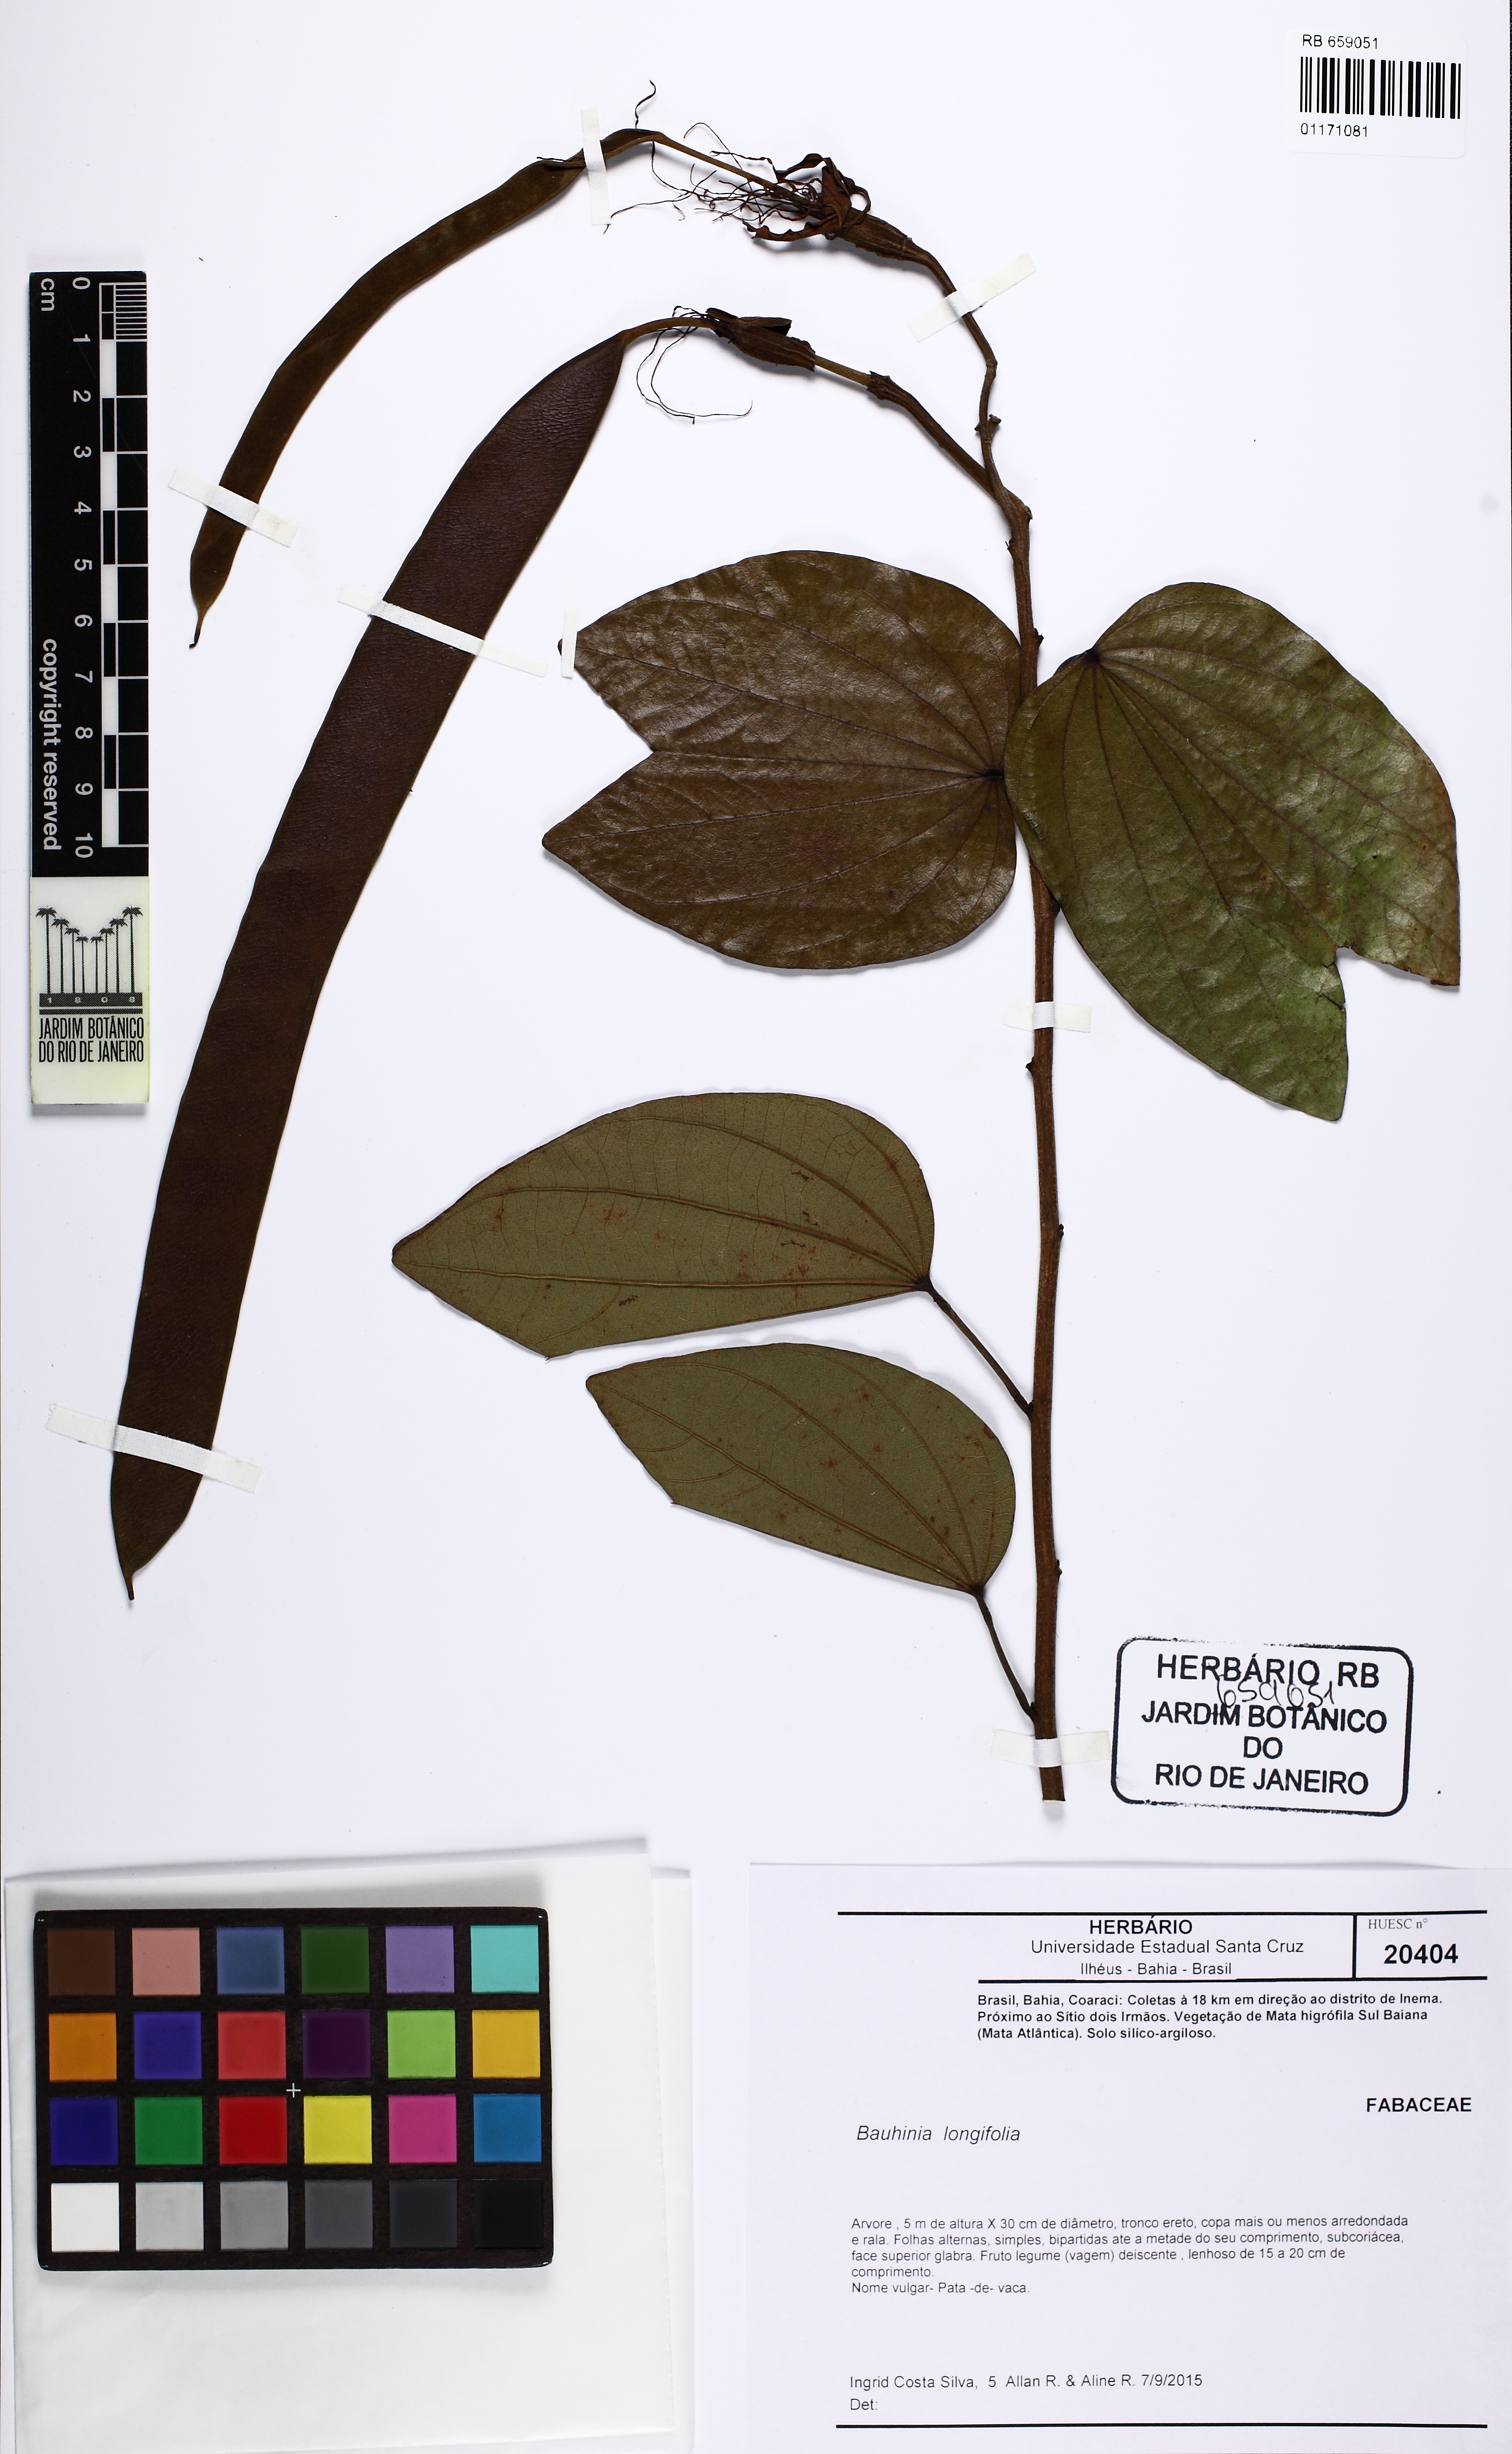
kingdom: Plantae
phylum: Tracheophyta
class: Magnoliopsida
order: Fabales
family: Fabaceae
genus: Bauhinia
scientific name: Bauhinia longifolia
